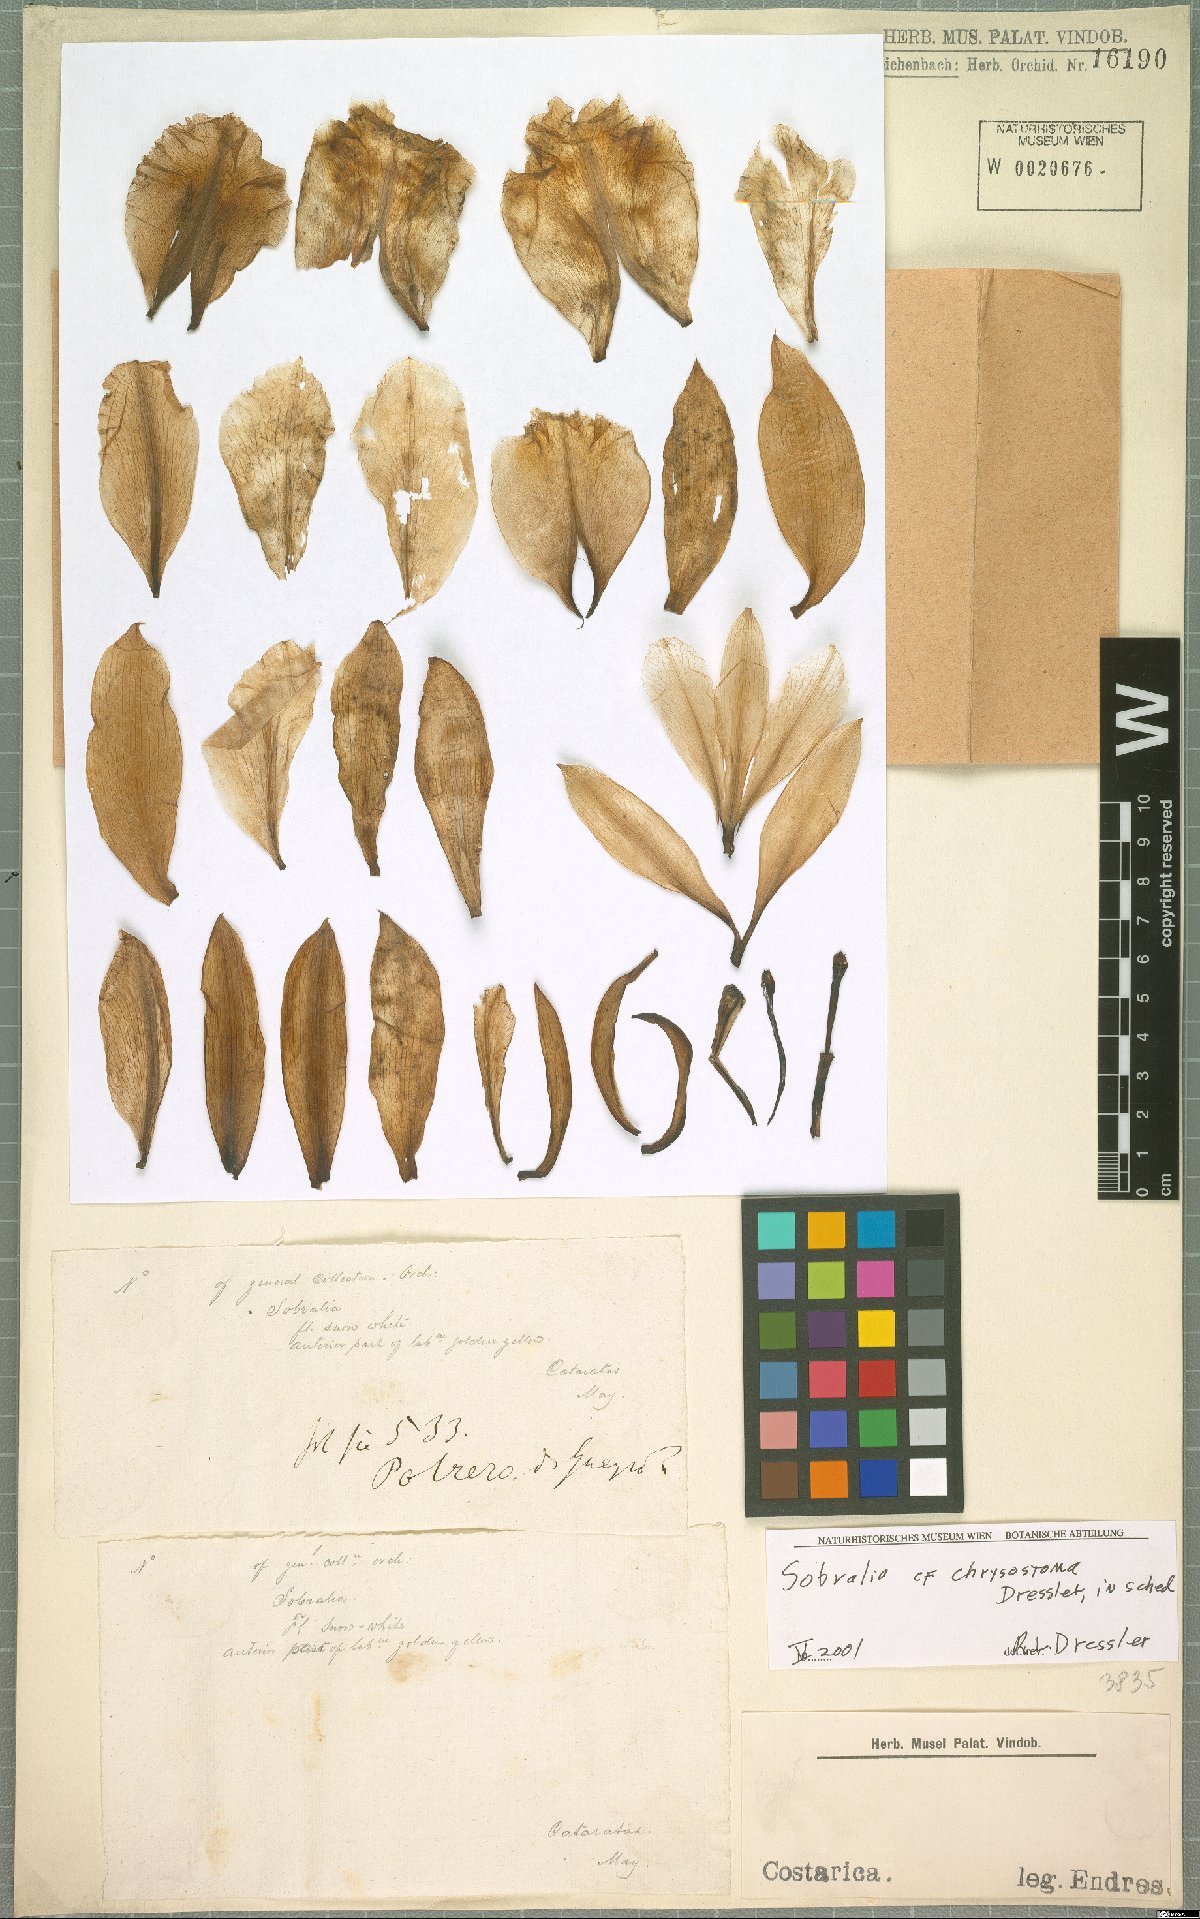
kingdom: Plantae
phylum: Tracheophyta
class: Liliopsida
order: Asparagales
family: Orchidaceae
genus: Sobralia
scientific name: Sobralia chrysostoma
